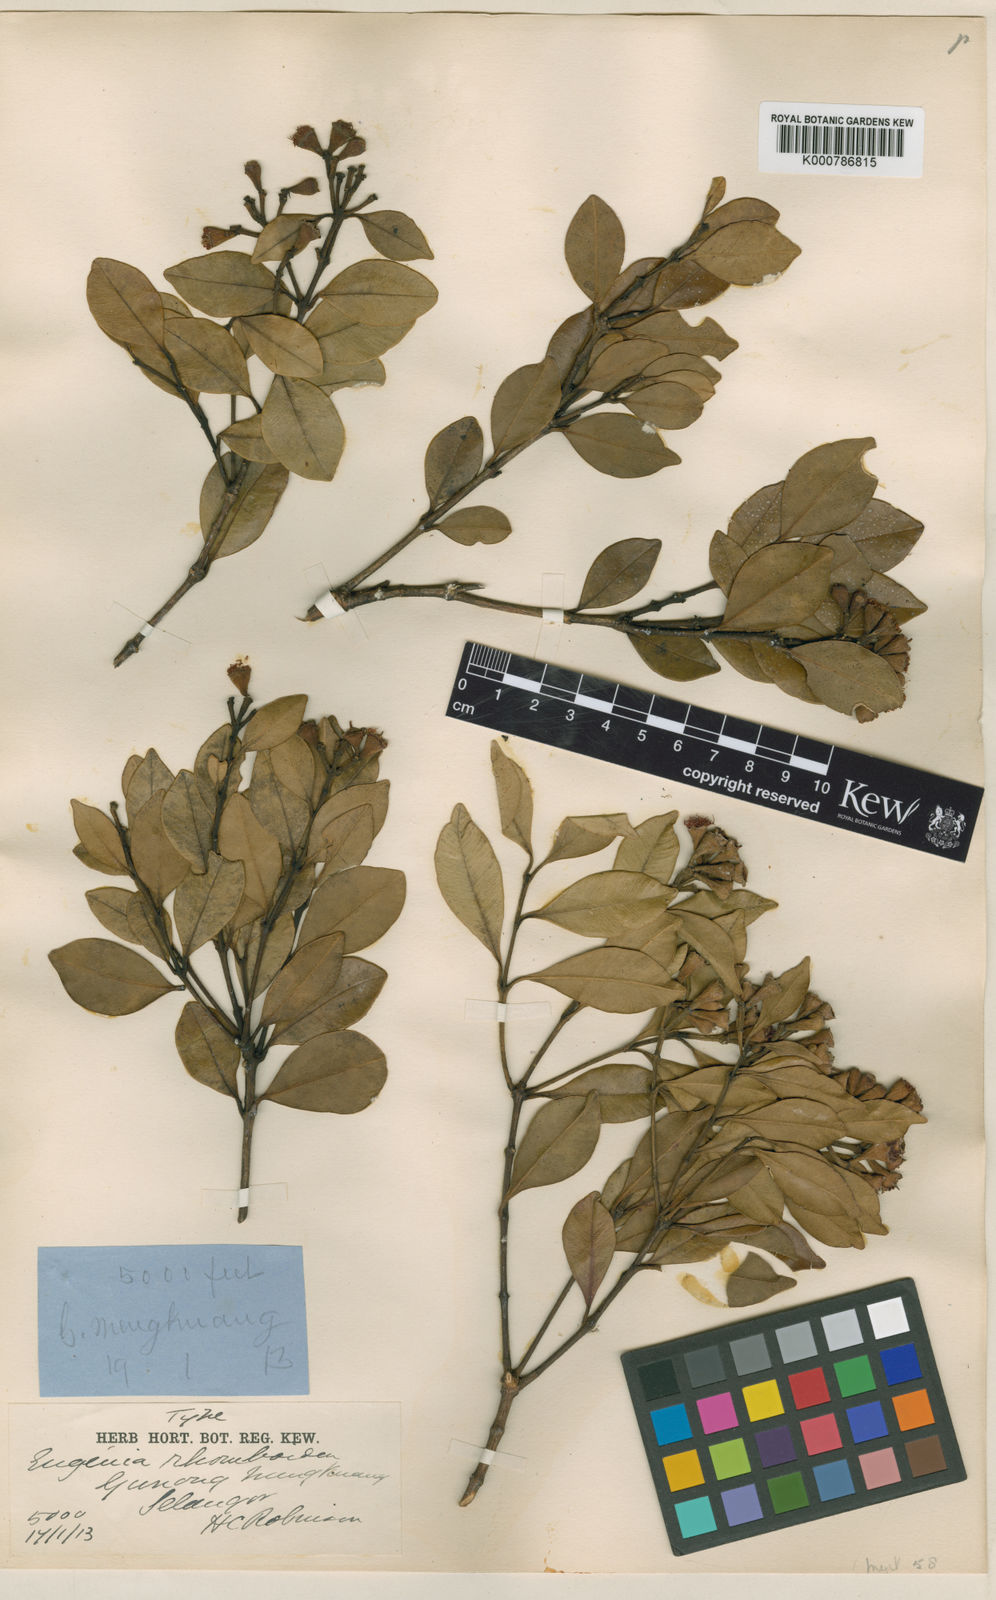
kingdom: Plantae
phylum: Tracheophyta
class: Magnoliopsida
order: Myrtales
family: Myrtaceae
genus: Syzygium
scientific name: Syzygium rhomboideum
